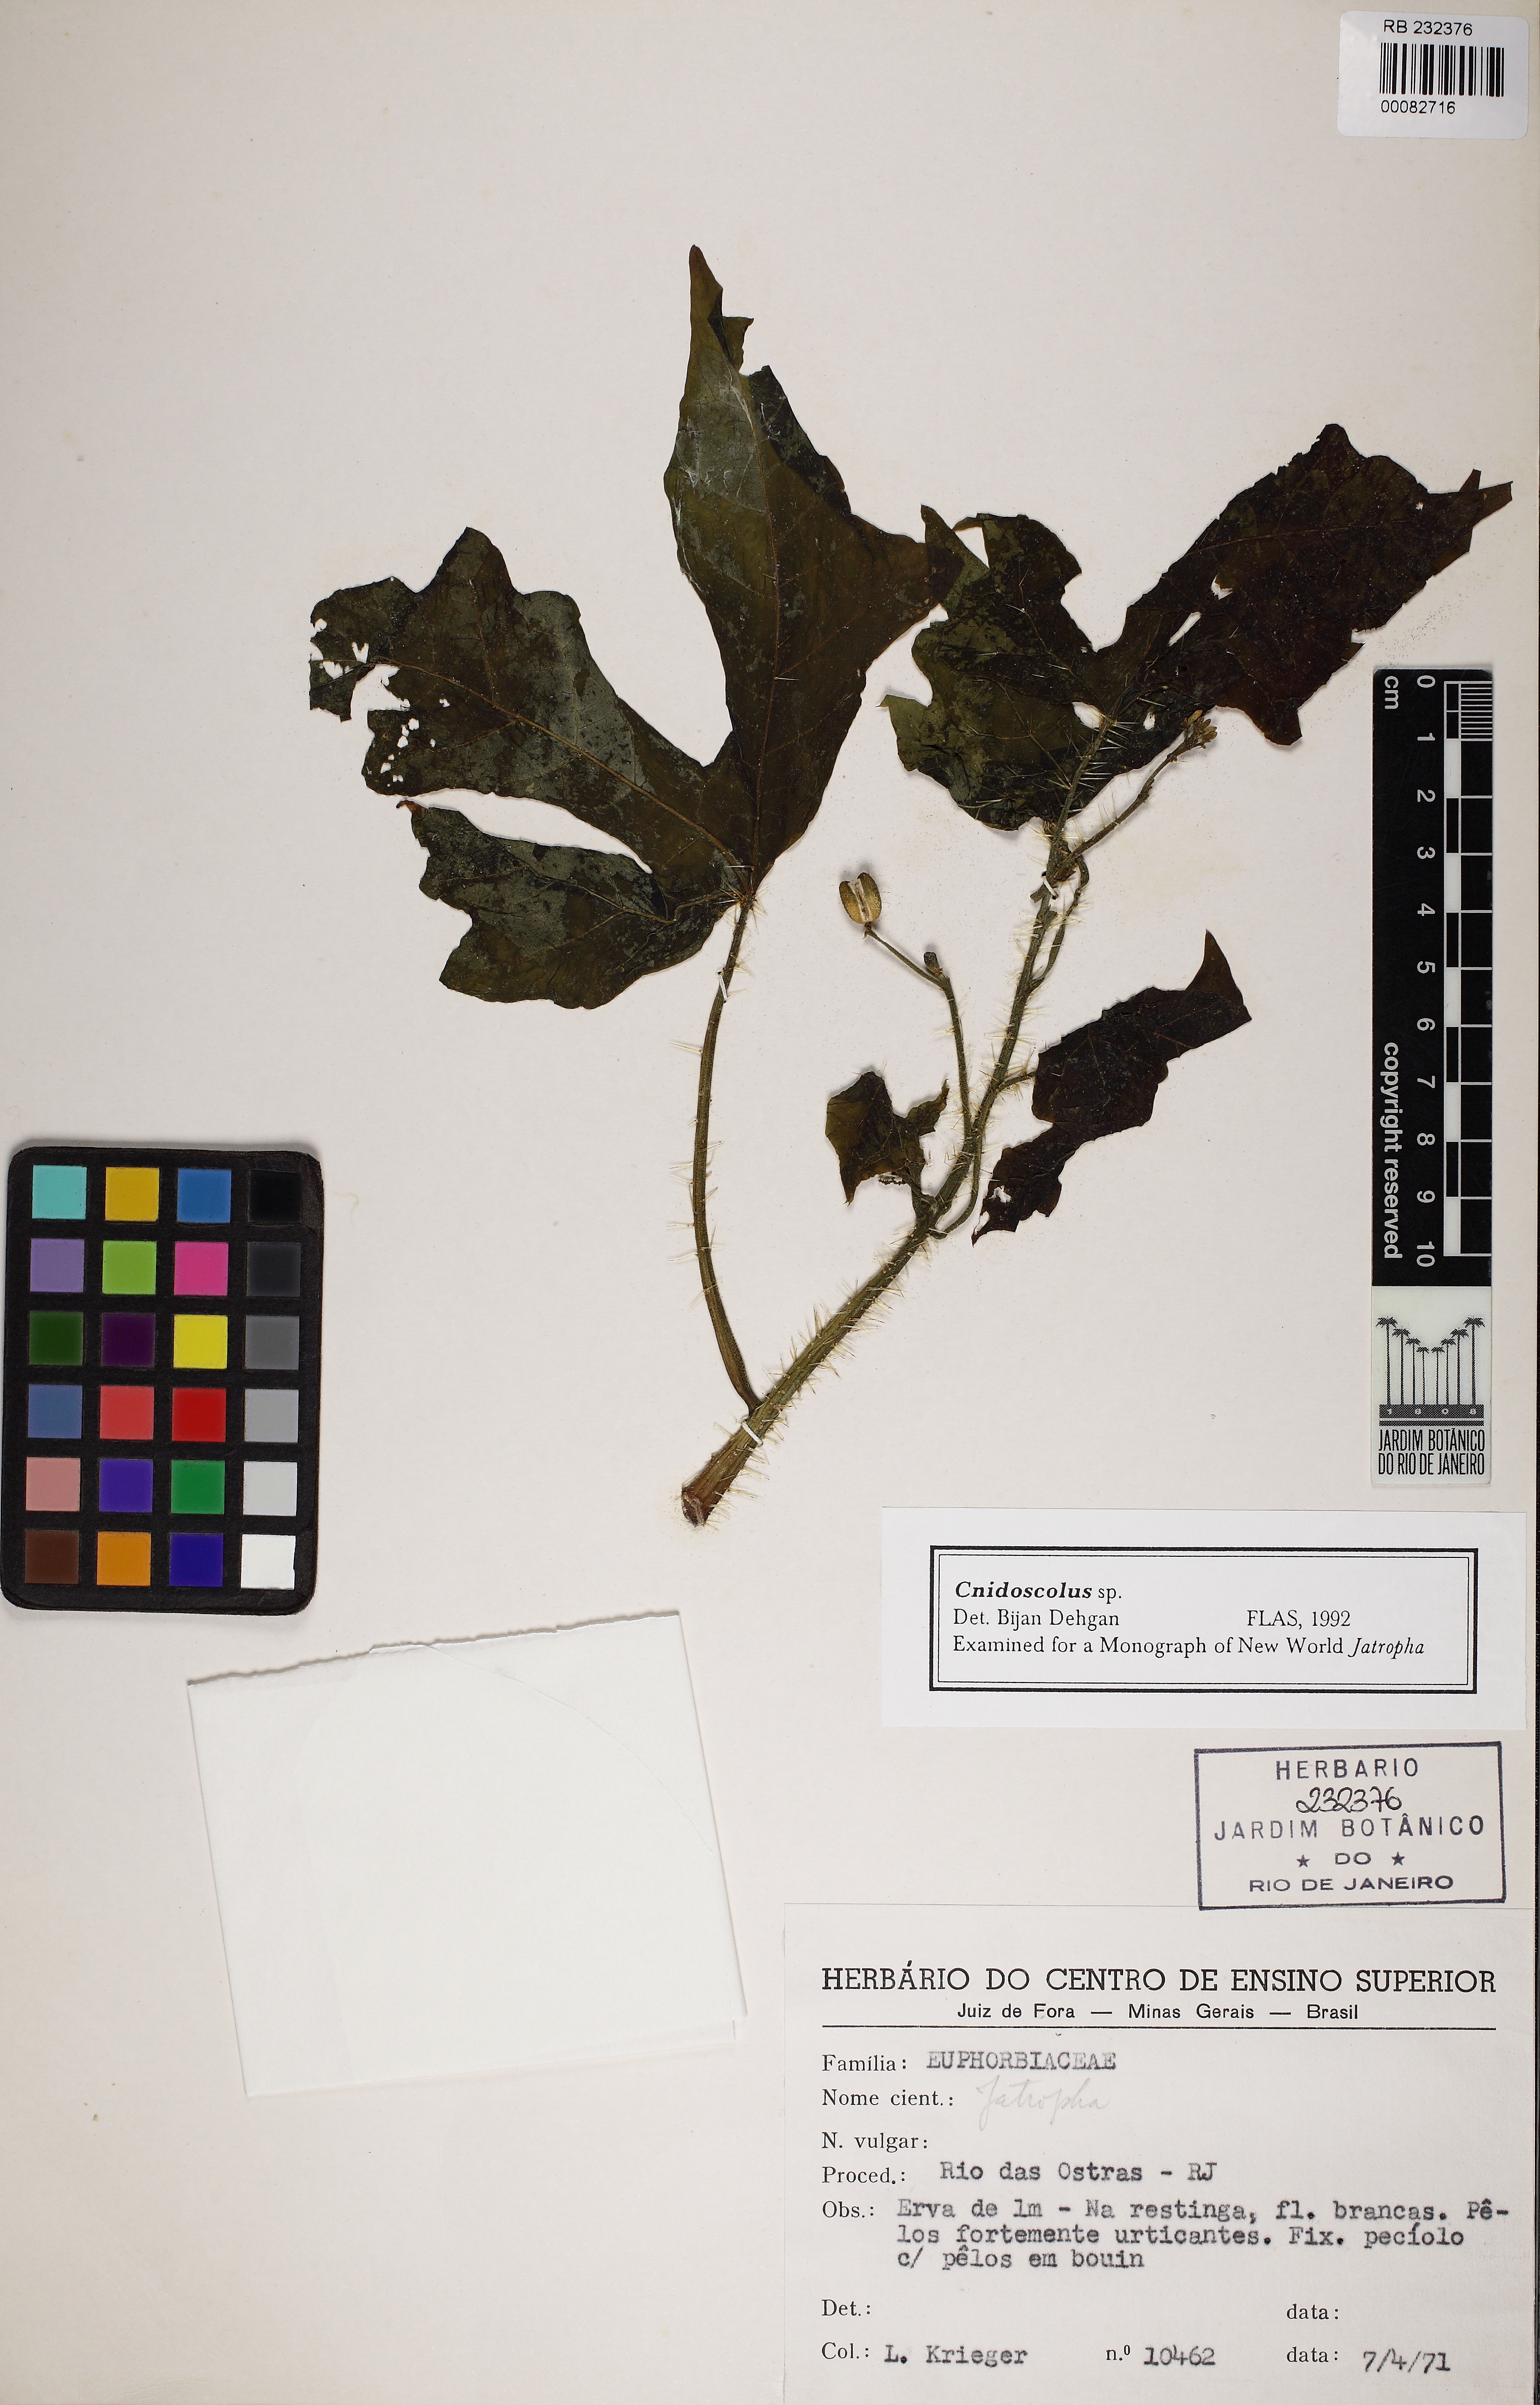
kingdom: Plantae
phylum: Tracheophyta
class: Magnoliopsida
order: Malpighiales
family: Euphorbiaceae
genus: Cnidoscolus
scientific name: Cnidoscolus
